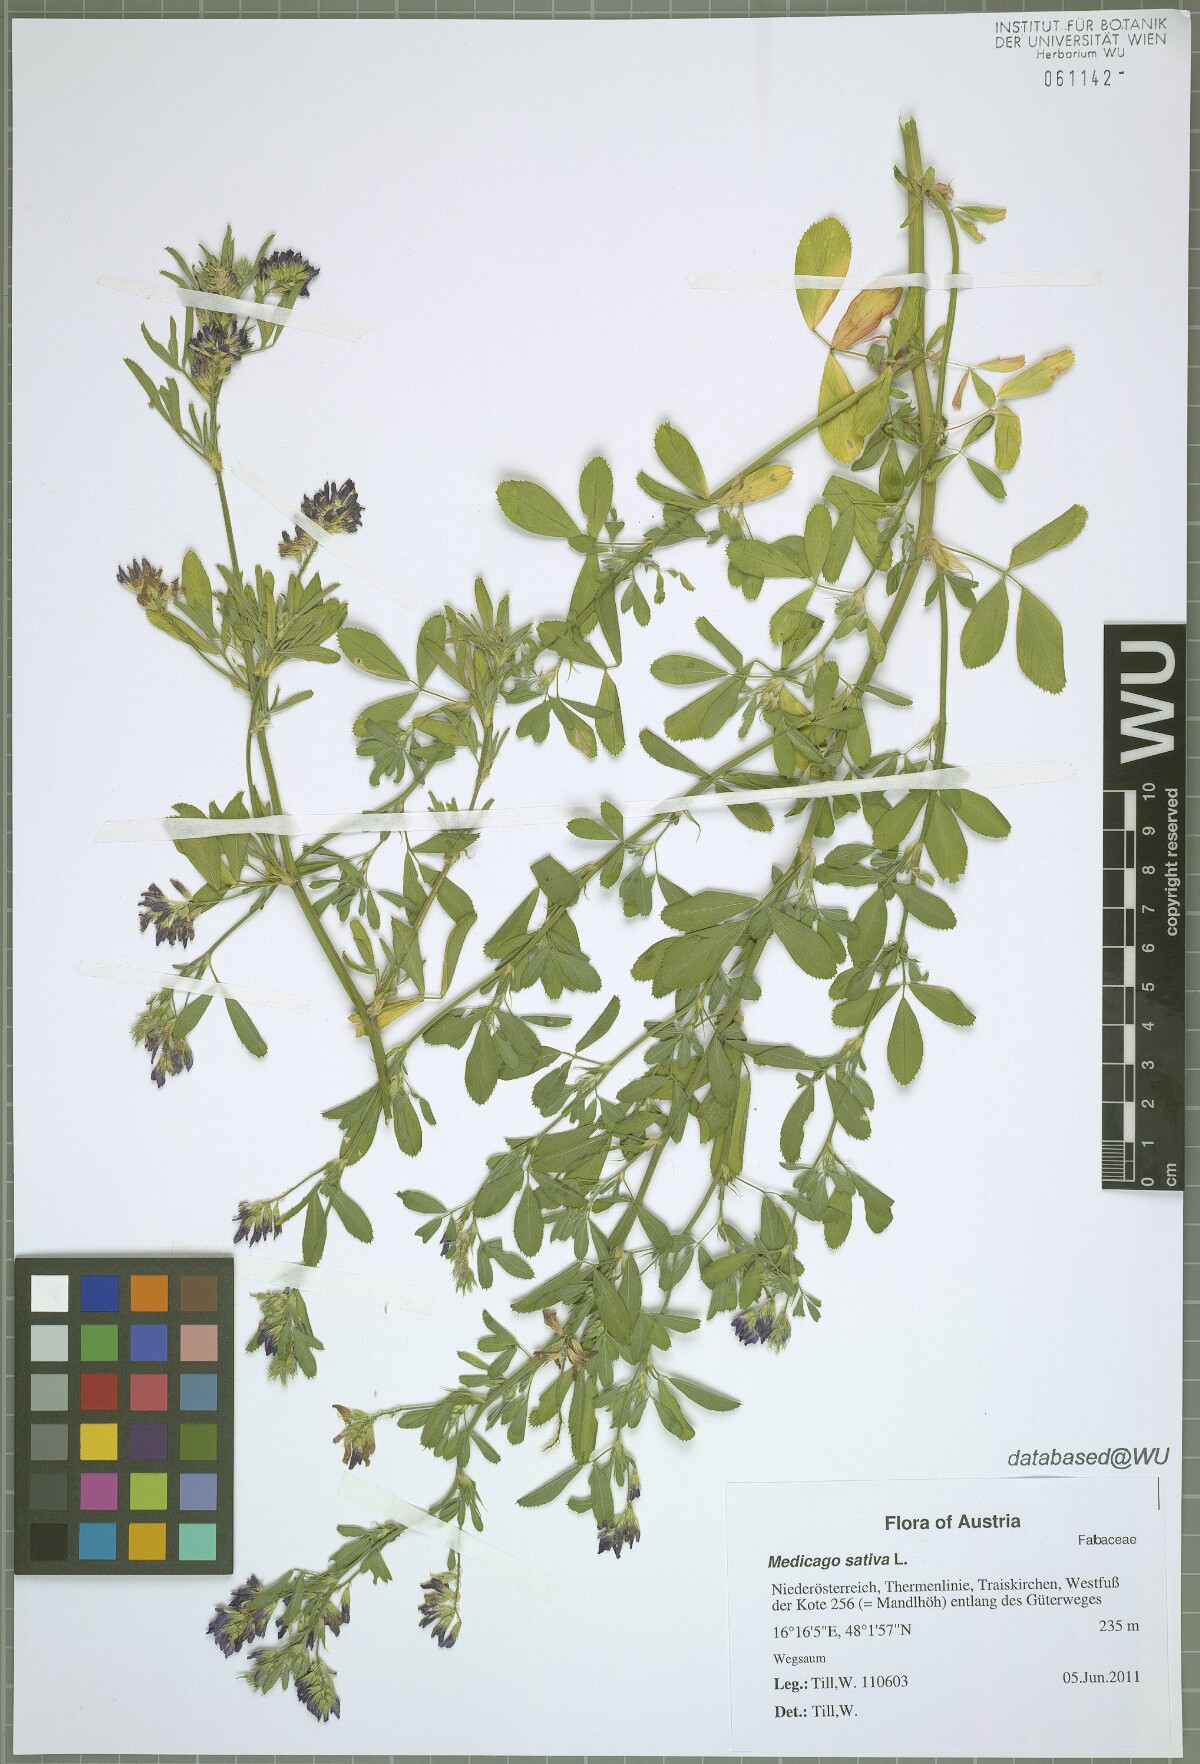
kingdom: Plantae
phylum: Tracheophyta
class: Magnoliopsida
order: Fabales
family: Fabaceae
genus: Medicago
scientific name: Medicago sativa
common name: Alfalfa
